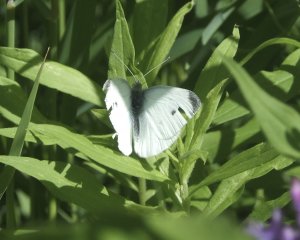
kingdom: Animalia
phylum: Arthropoda
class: Insecta
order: Lepidoptera
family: Pieridae
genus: Pieris
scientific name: Pieris rapae
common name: Cabbage White
